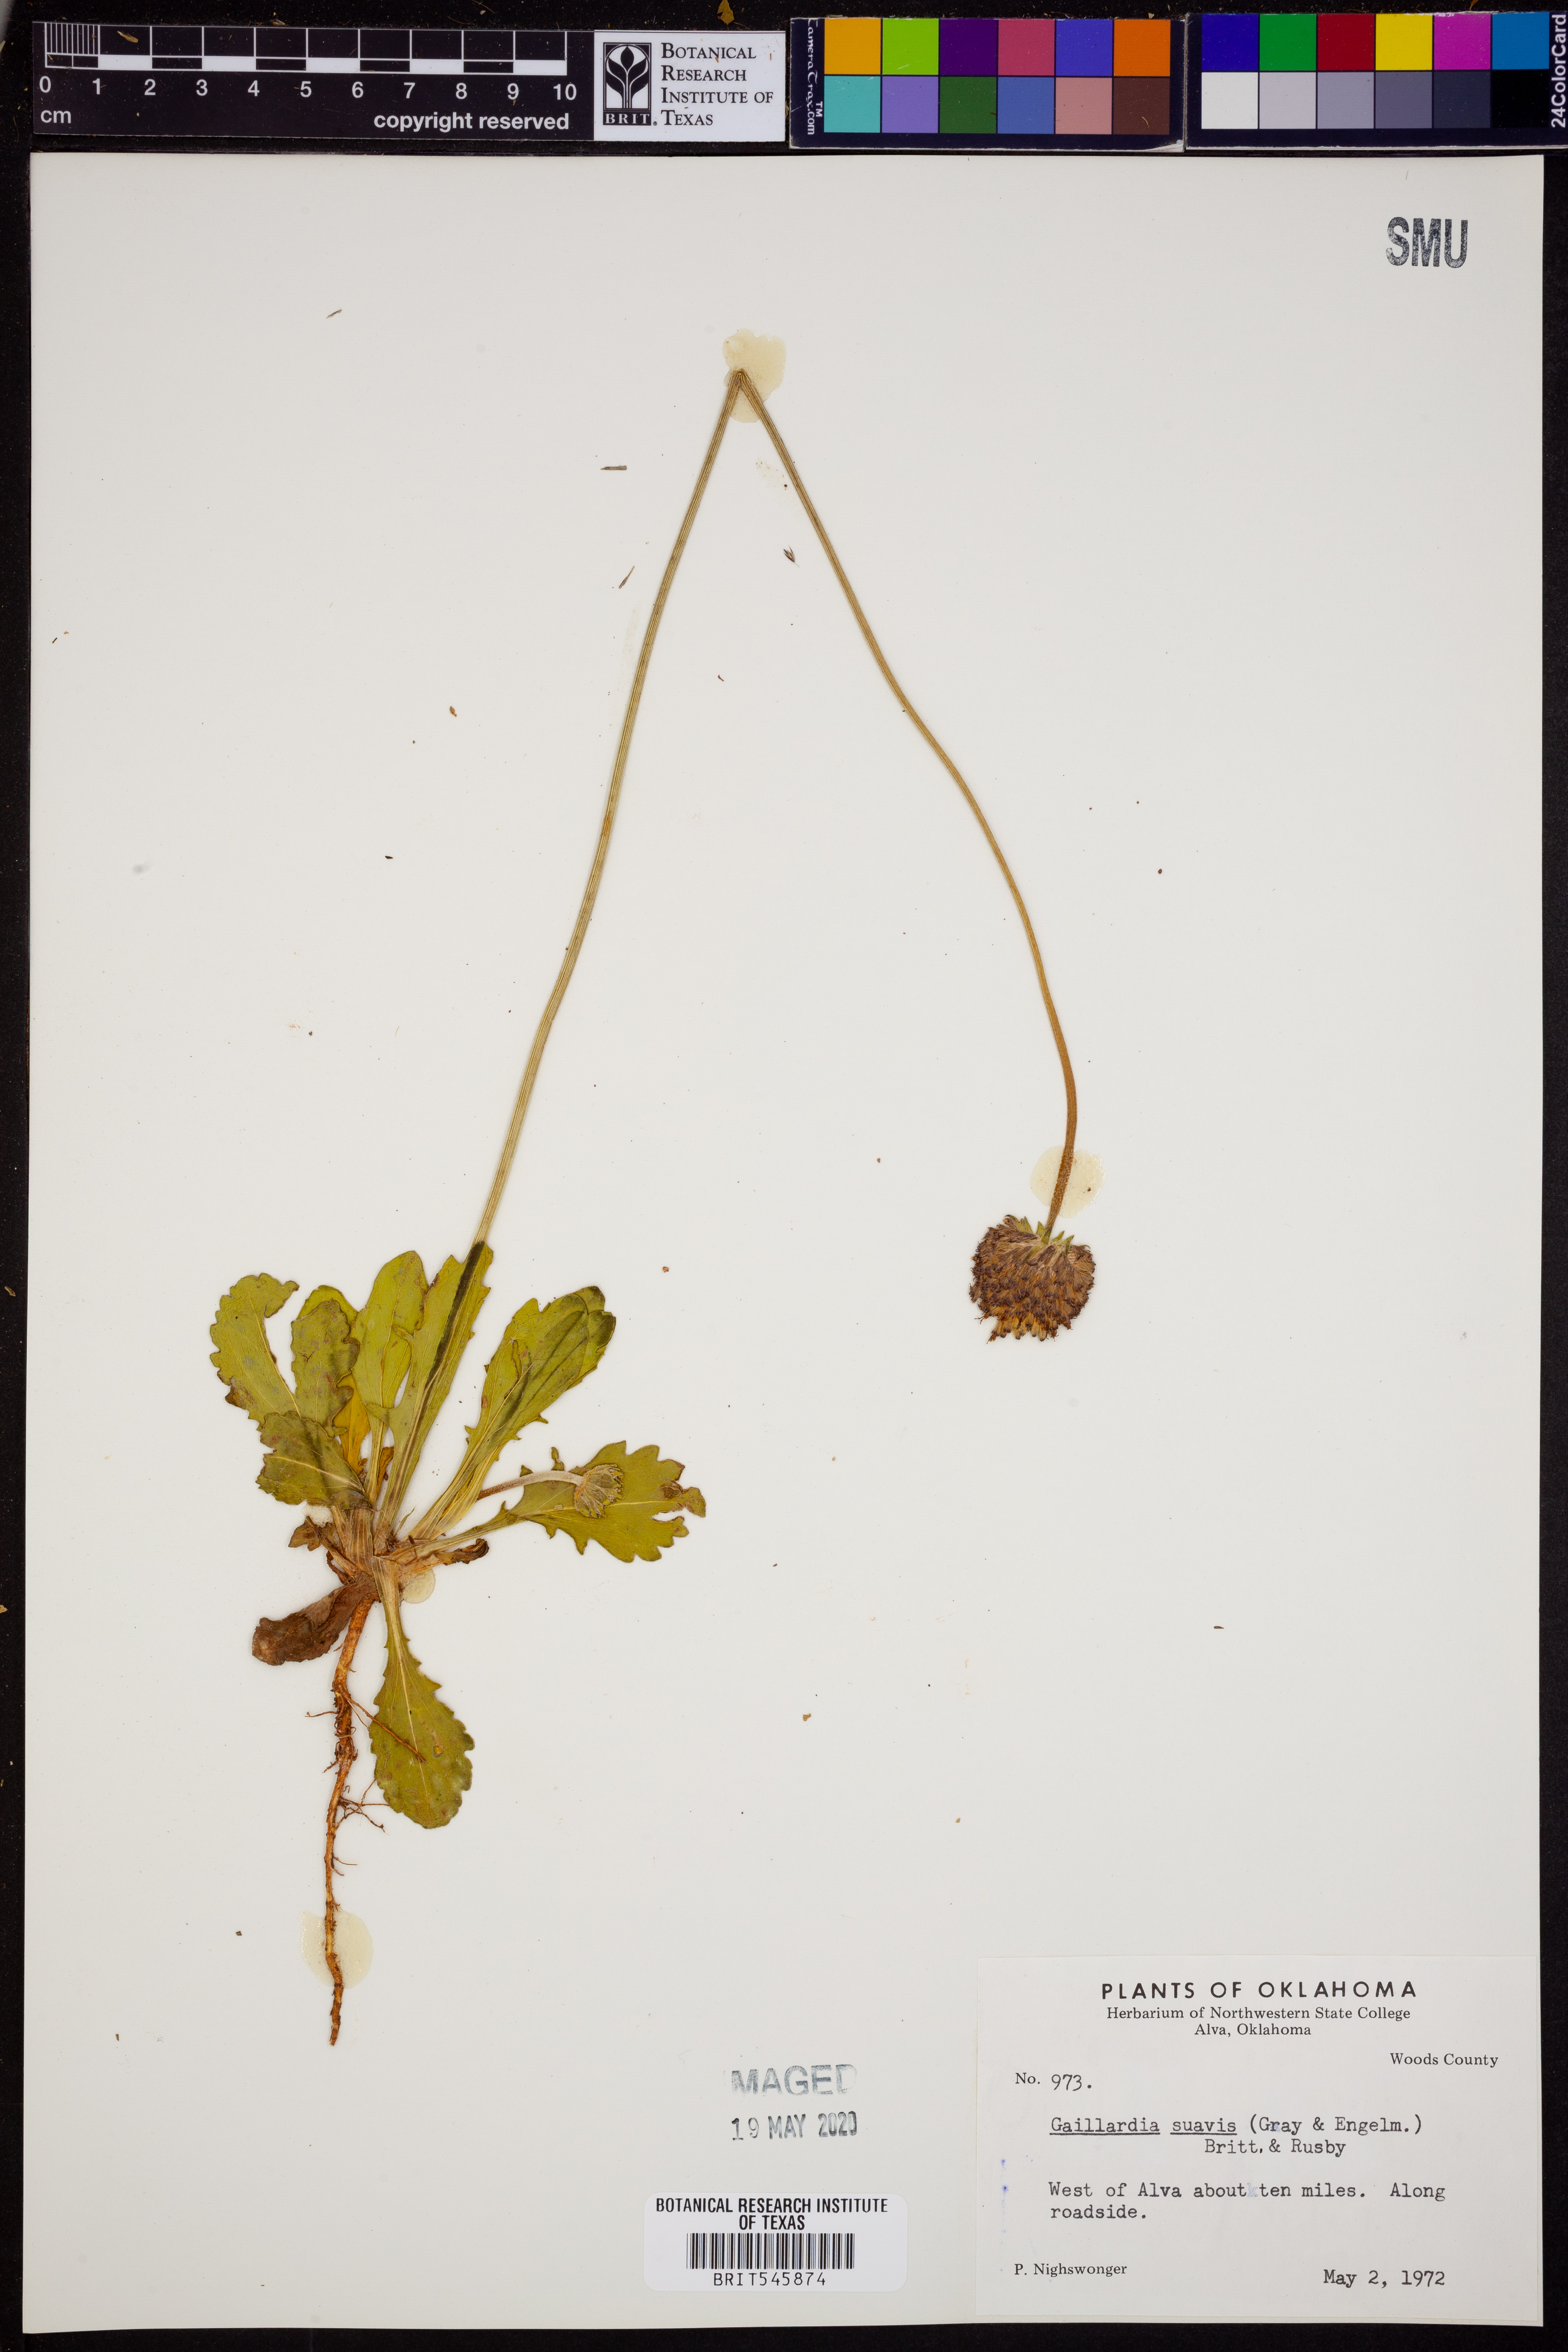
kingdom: Plantae
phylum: Tracheophyta
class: Magnoliopsida
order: Asterales
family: Asteraceae
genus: Gaillardia
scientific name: Gaillardia suavis
